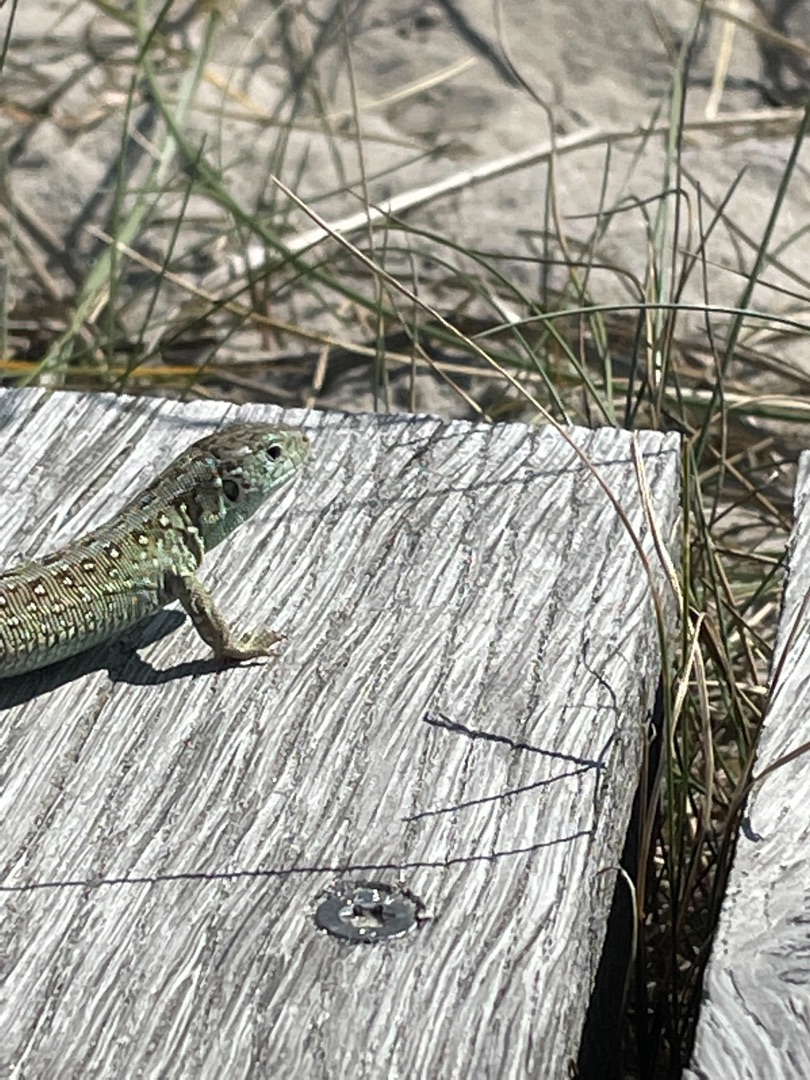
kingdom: Animalia
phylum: Chordata
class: Squamata
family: Lacertidae
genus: Lacerta
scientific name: Lacerta agilis
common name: Markfirben
